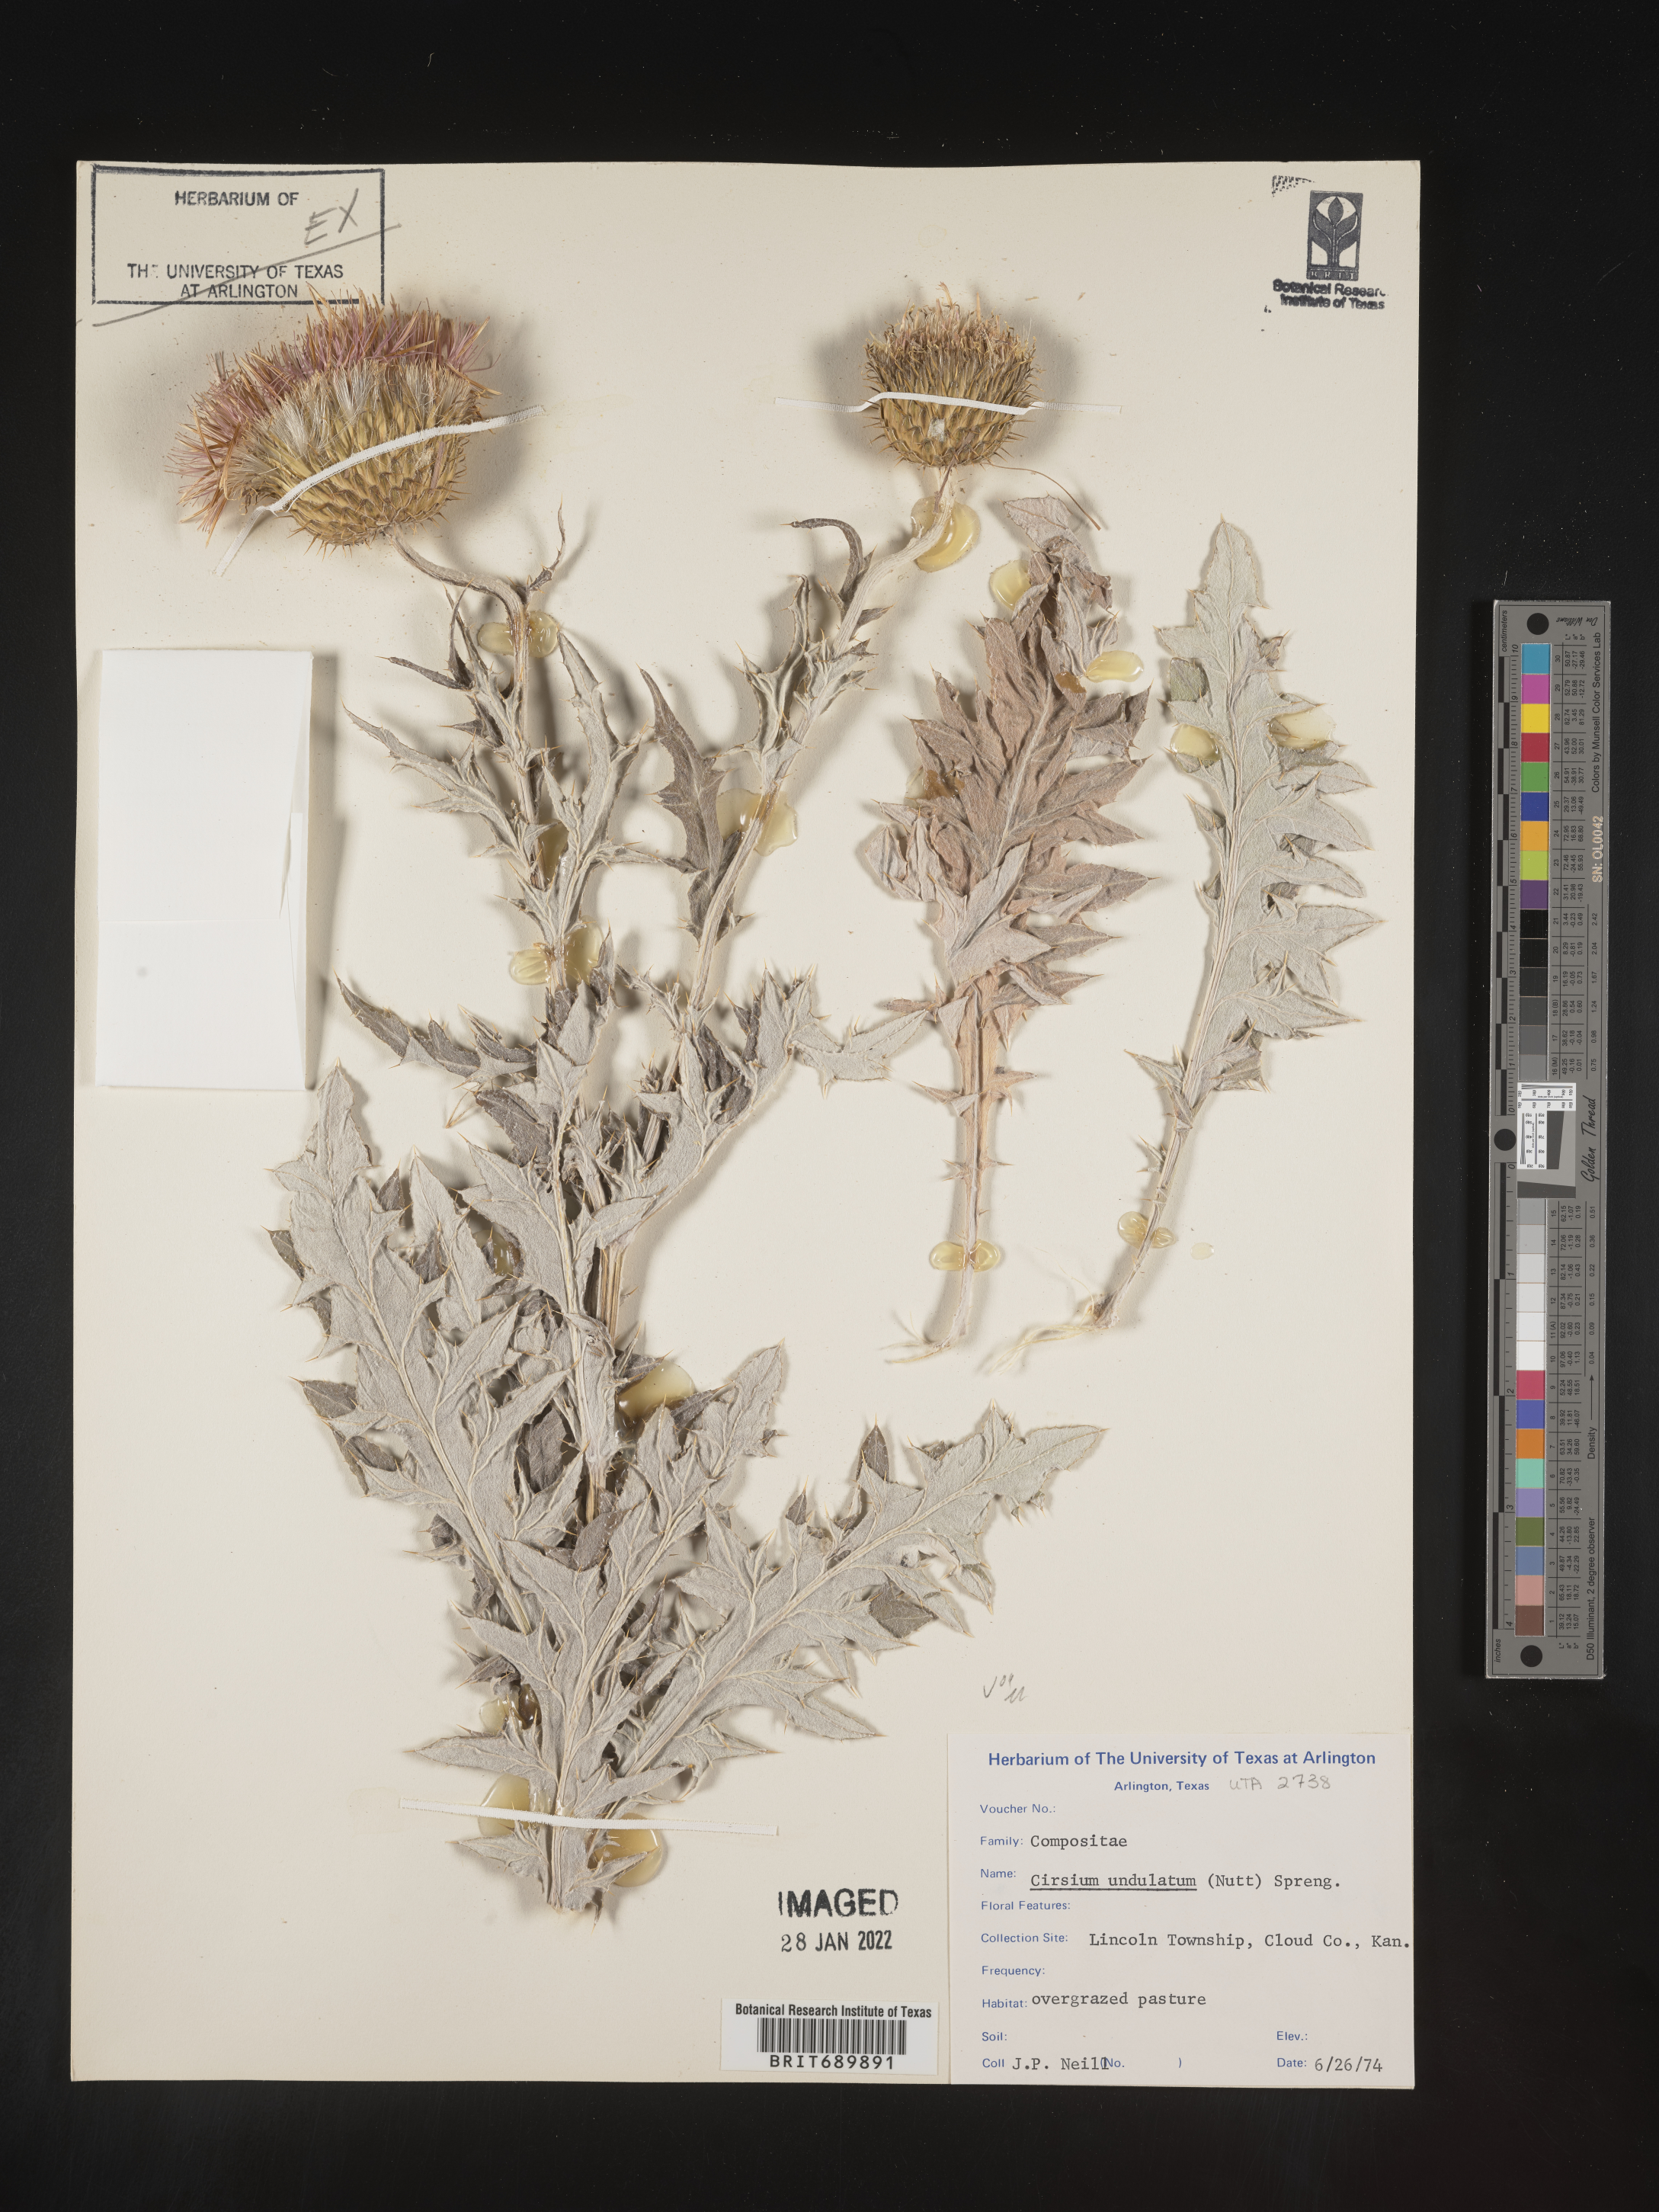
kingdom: Plantae
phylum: Tracheophyta
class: Magnoliopsida
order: Asterales
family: Asteraceae
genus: Cirsium
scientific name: Cirsium undulatum
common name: Pasture thistle
